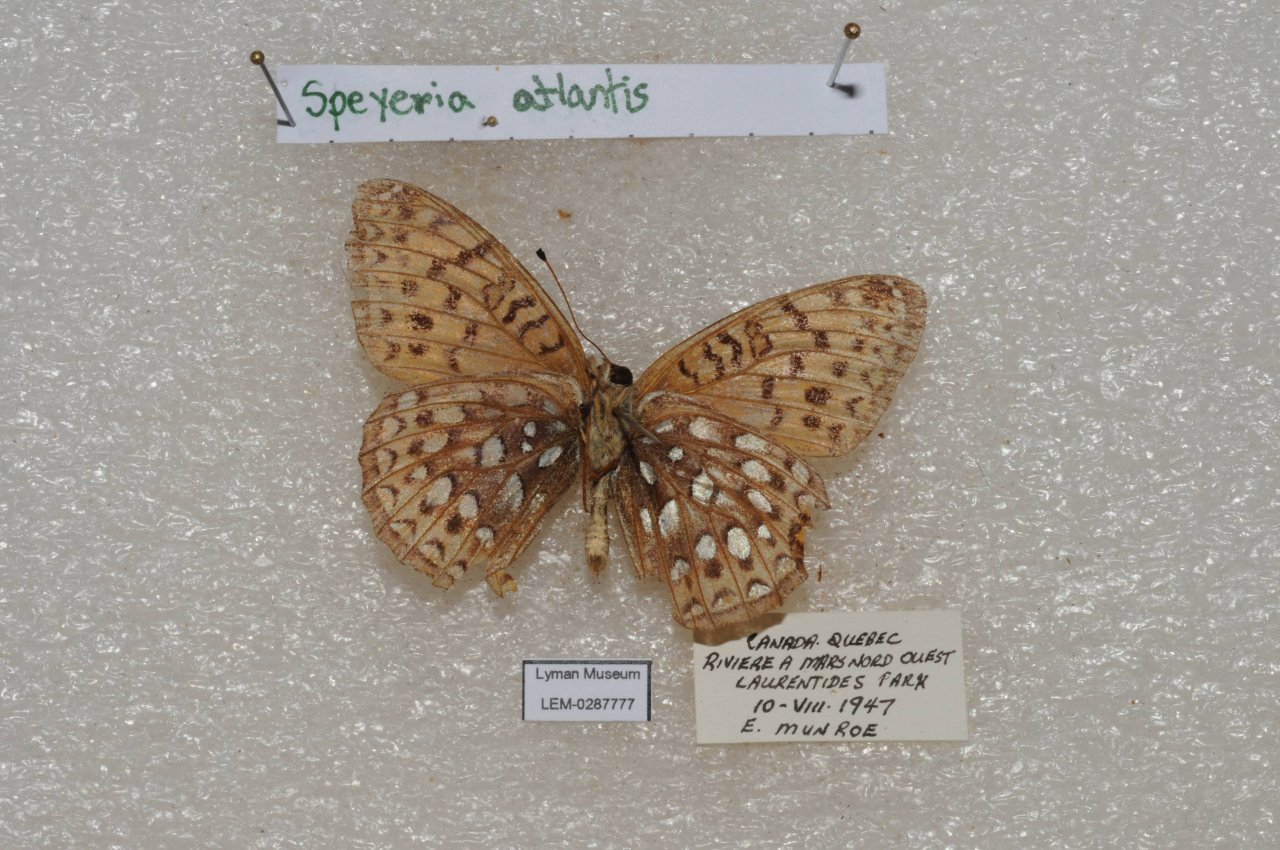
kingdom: Animalia
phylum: Arthropoda
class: Insecta
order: Lepidoptera
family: Nymphalidae
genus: Speyeria
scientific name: Speyeria atlantis
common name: Atlantis Fritillary
